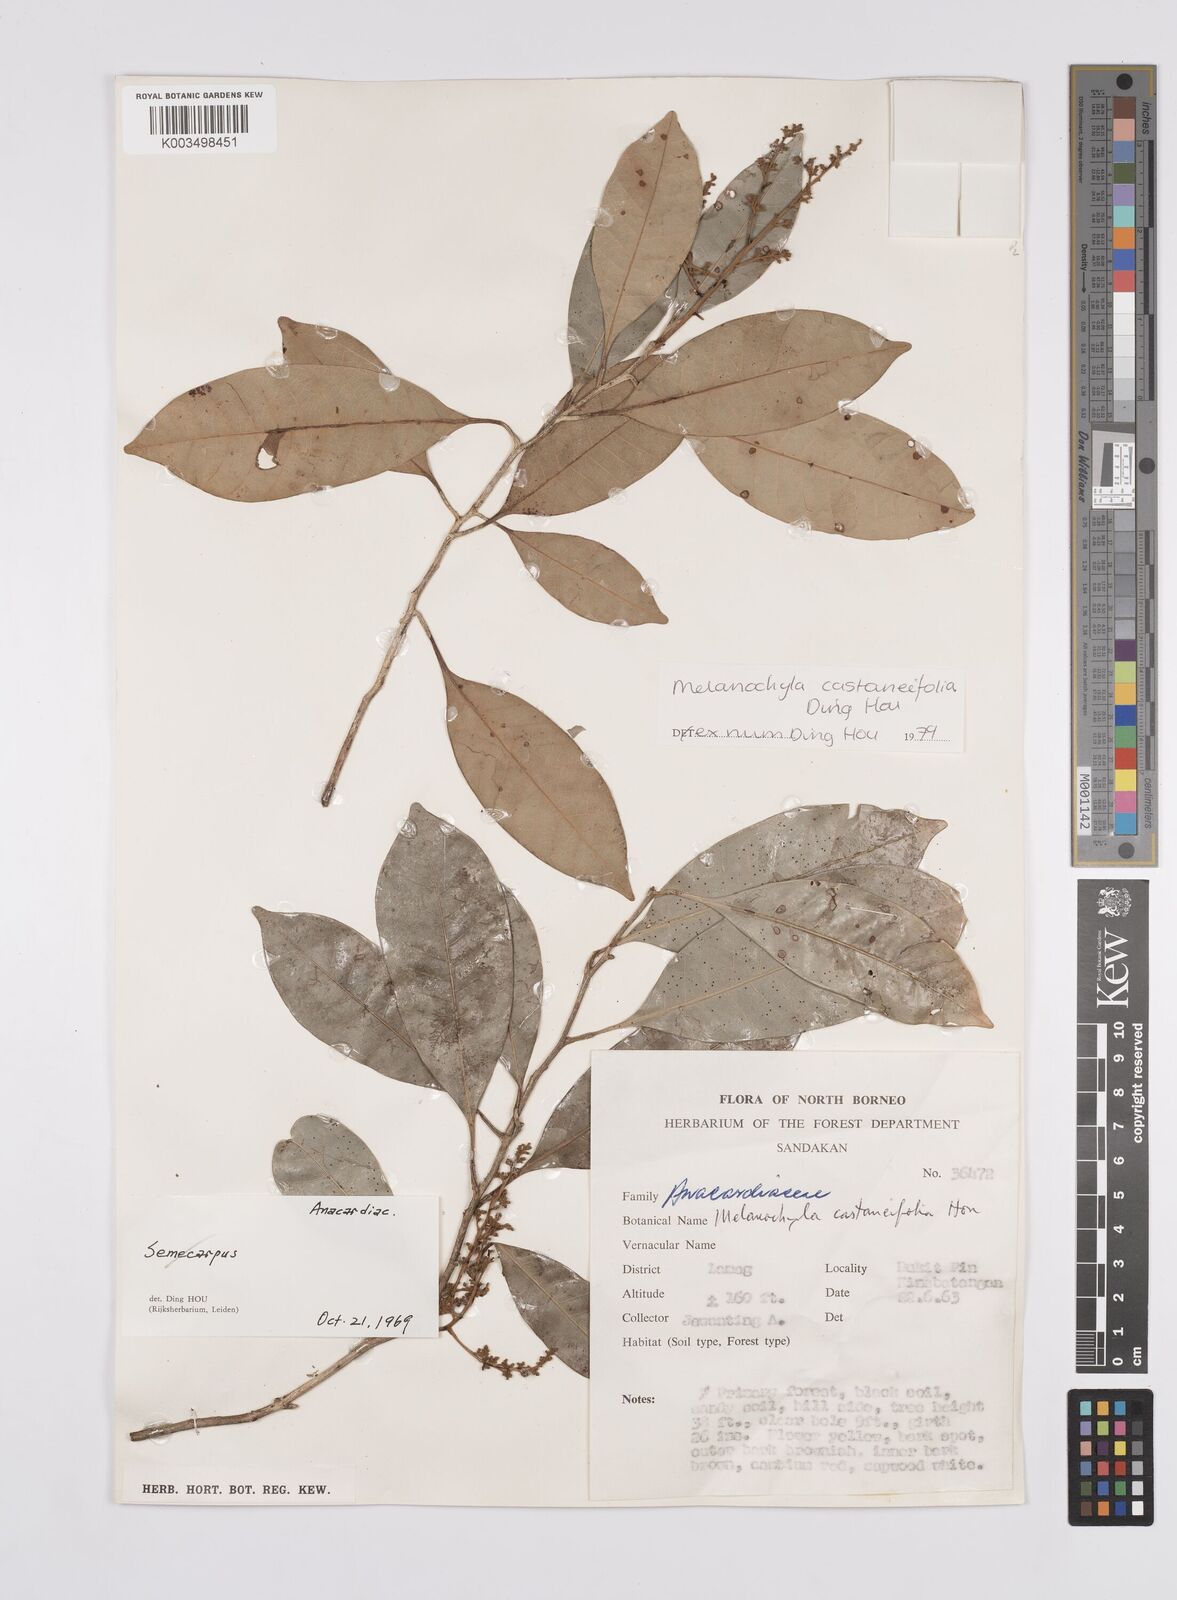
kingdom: Plantae
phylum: Tracheophyta
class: Magnoliopsida
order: Sapindales
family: Anacardiaceae
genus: Melanochyla
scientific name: Melanochyla castaneifolia
